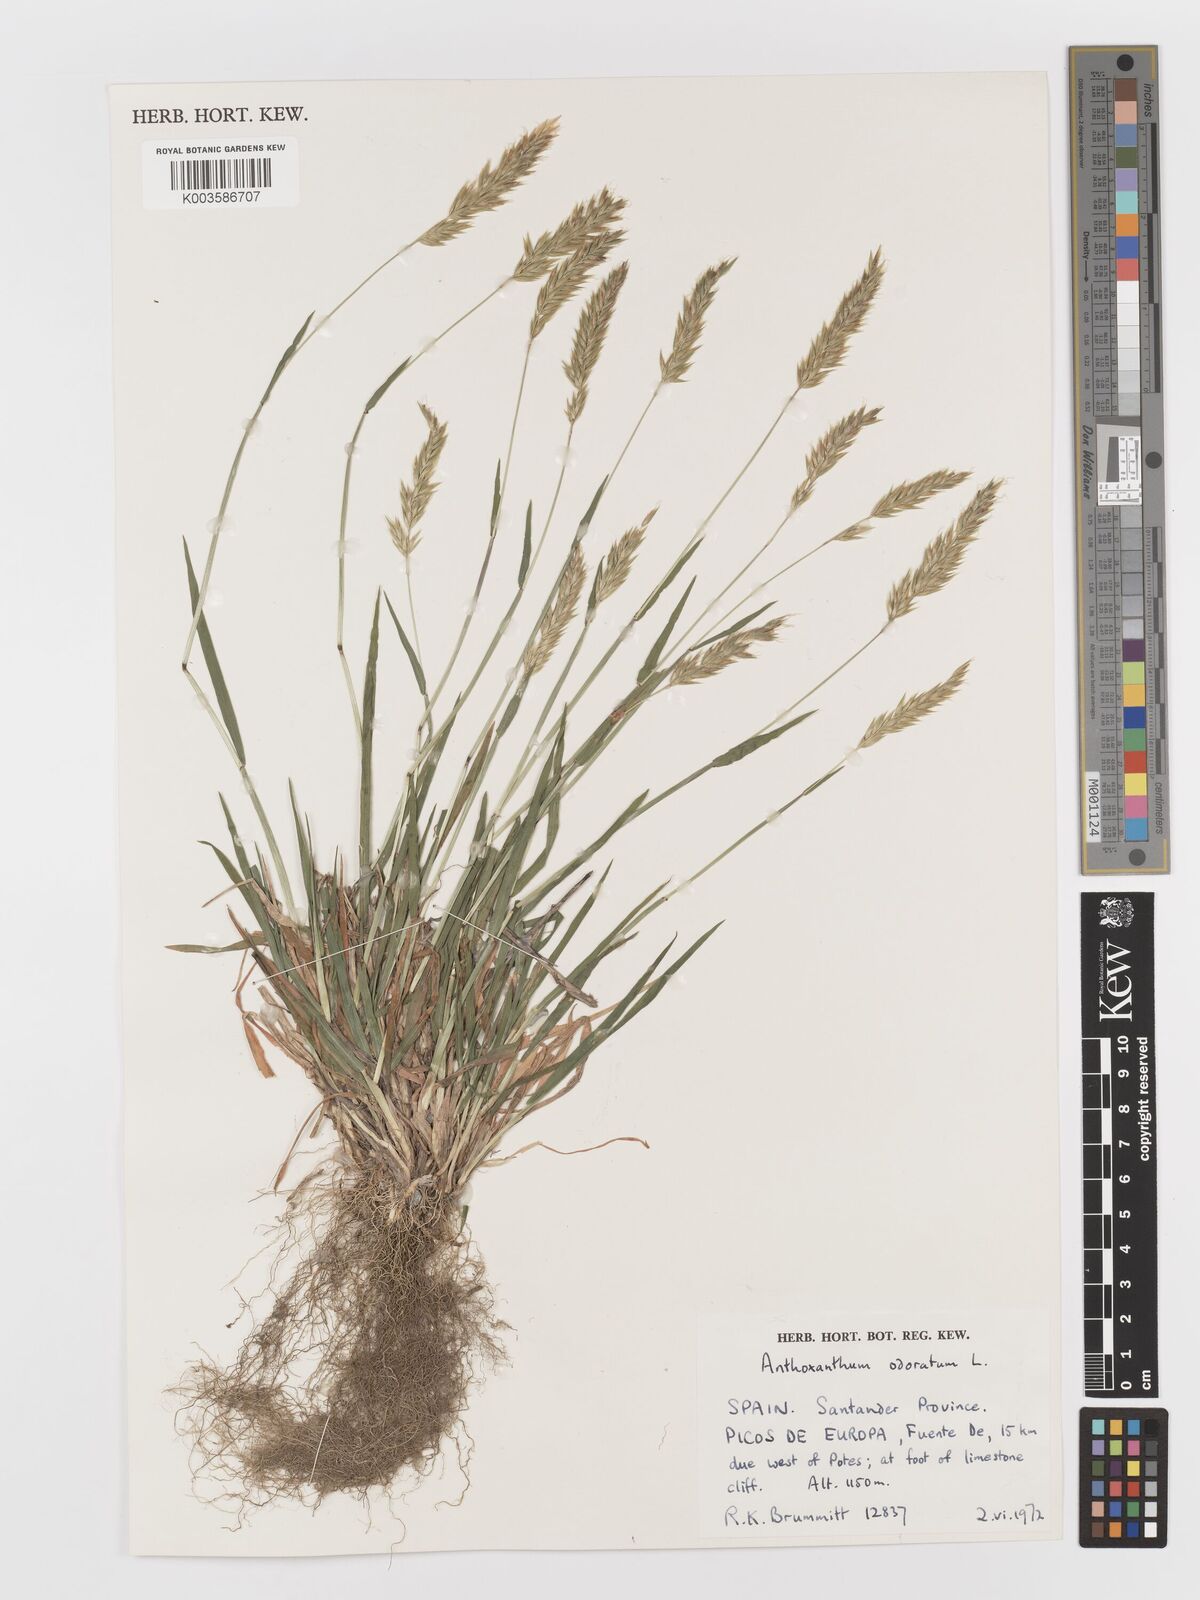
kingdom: Plantae
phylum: Tracheophyta
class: Liliopsida
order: Poales
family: Poaceae
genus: Anthoxanthum
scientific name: Anthoxanthum odoratum
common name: Sweet vernalgrass
